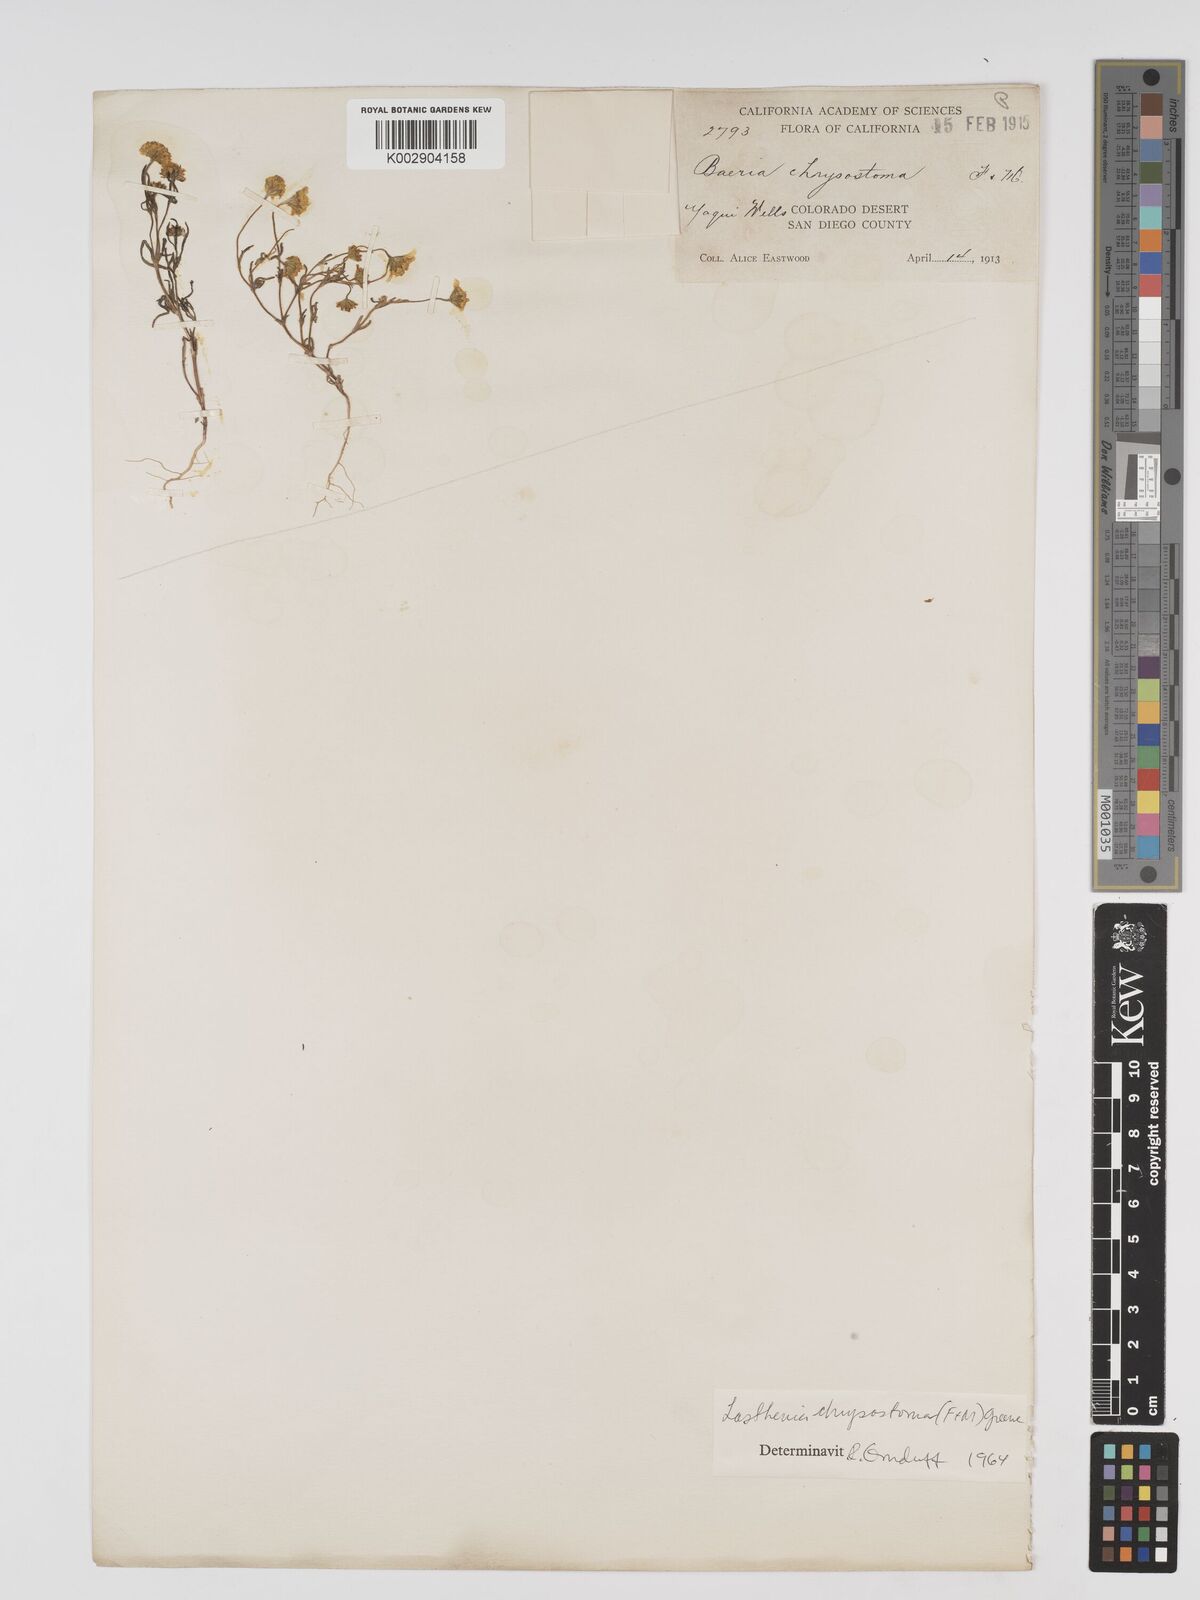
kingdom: Plantae
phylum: Tracheophyta
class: Magnoliopsida
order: Asterales
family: Asteraceae
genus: Lasthenia
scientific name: Lasthenia californica
